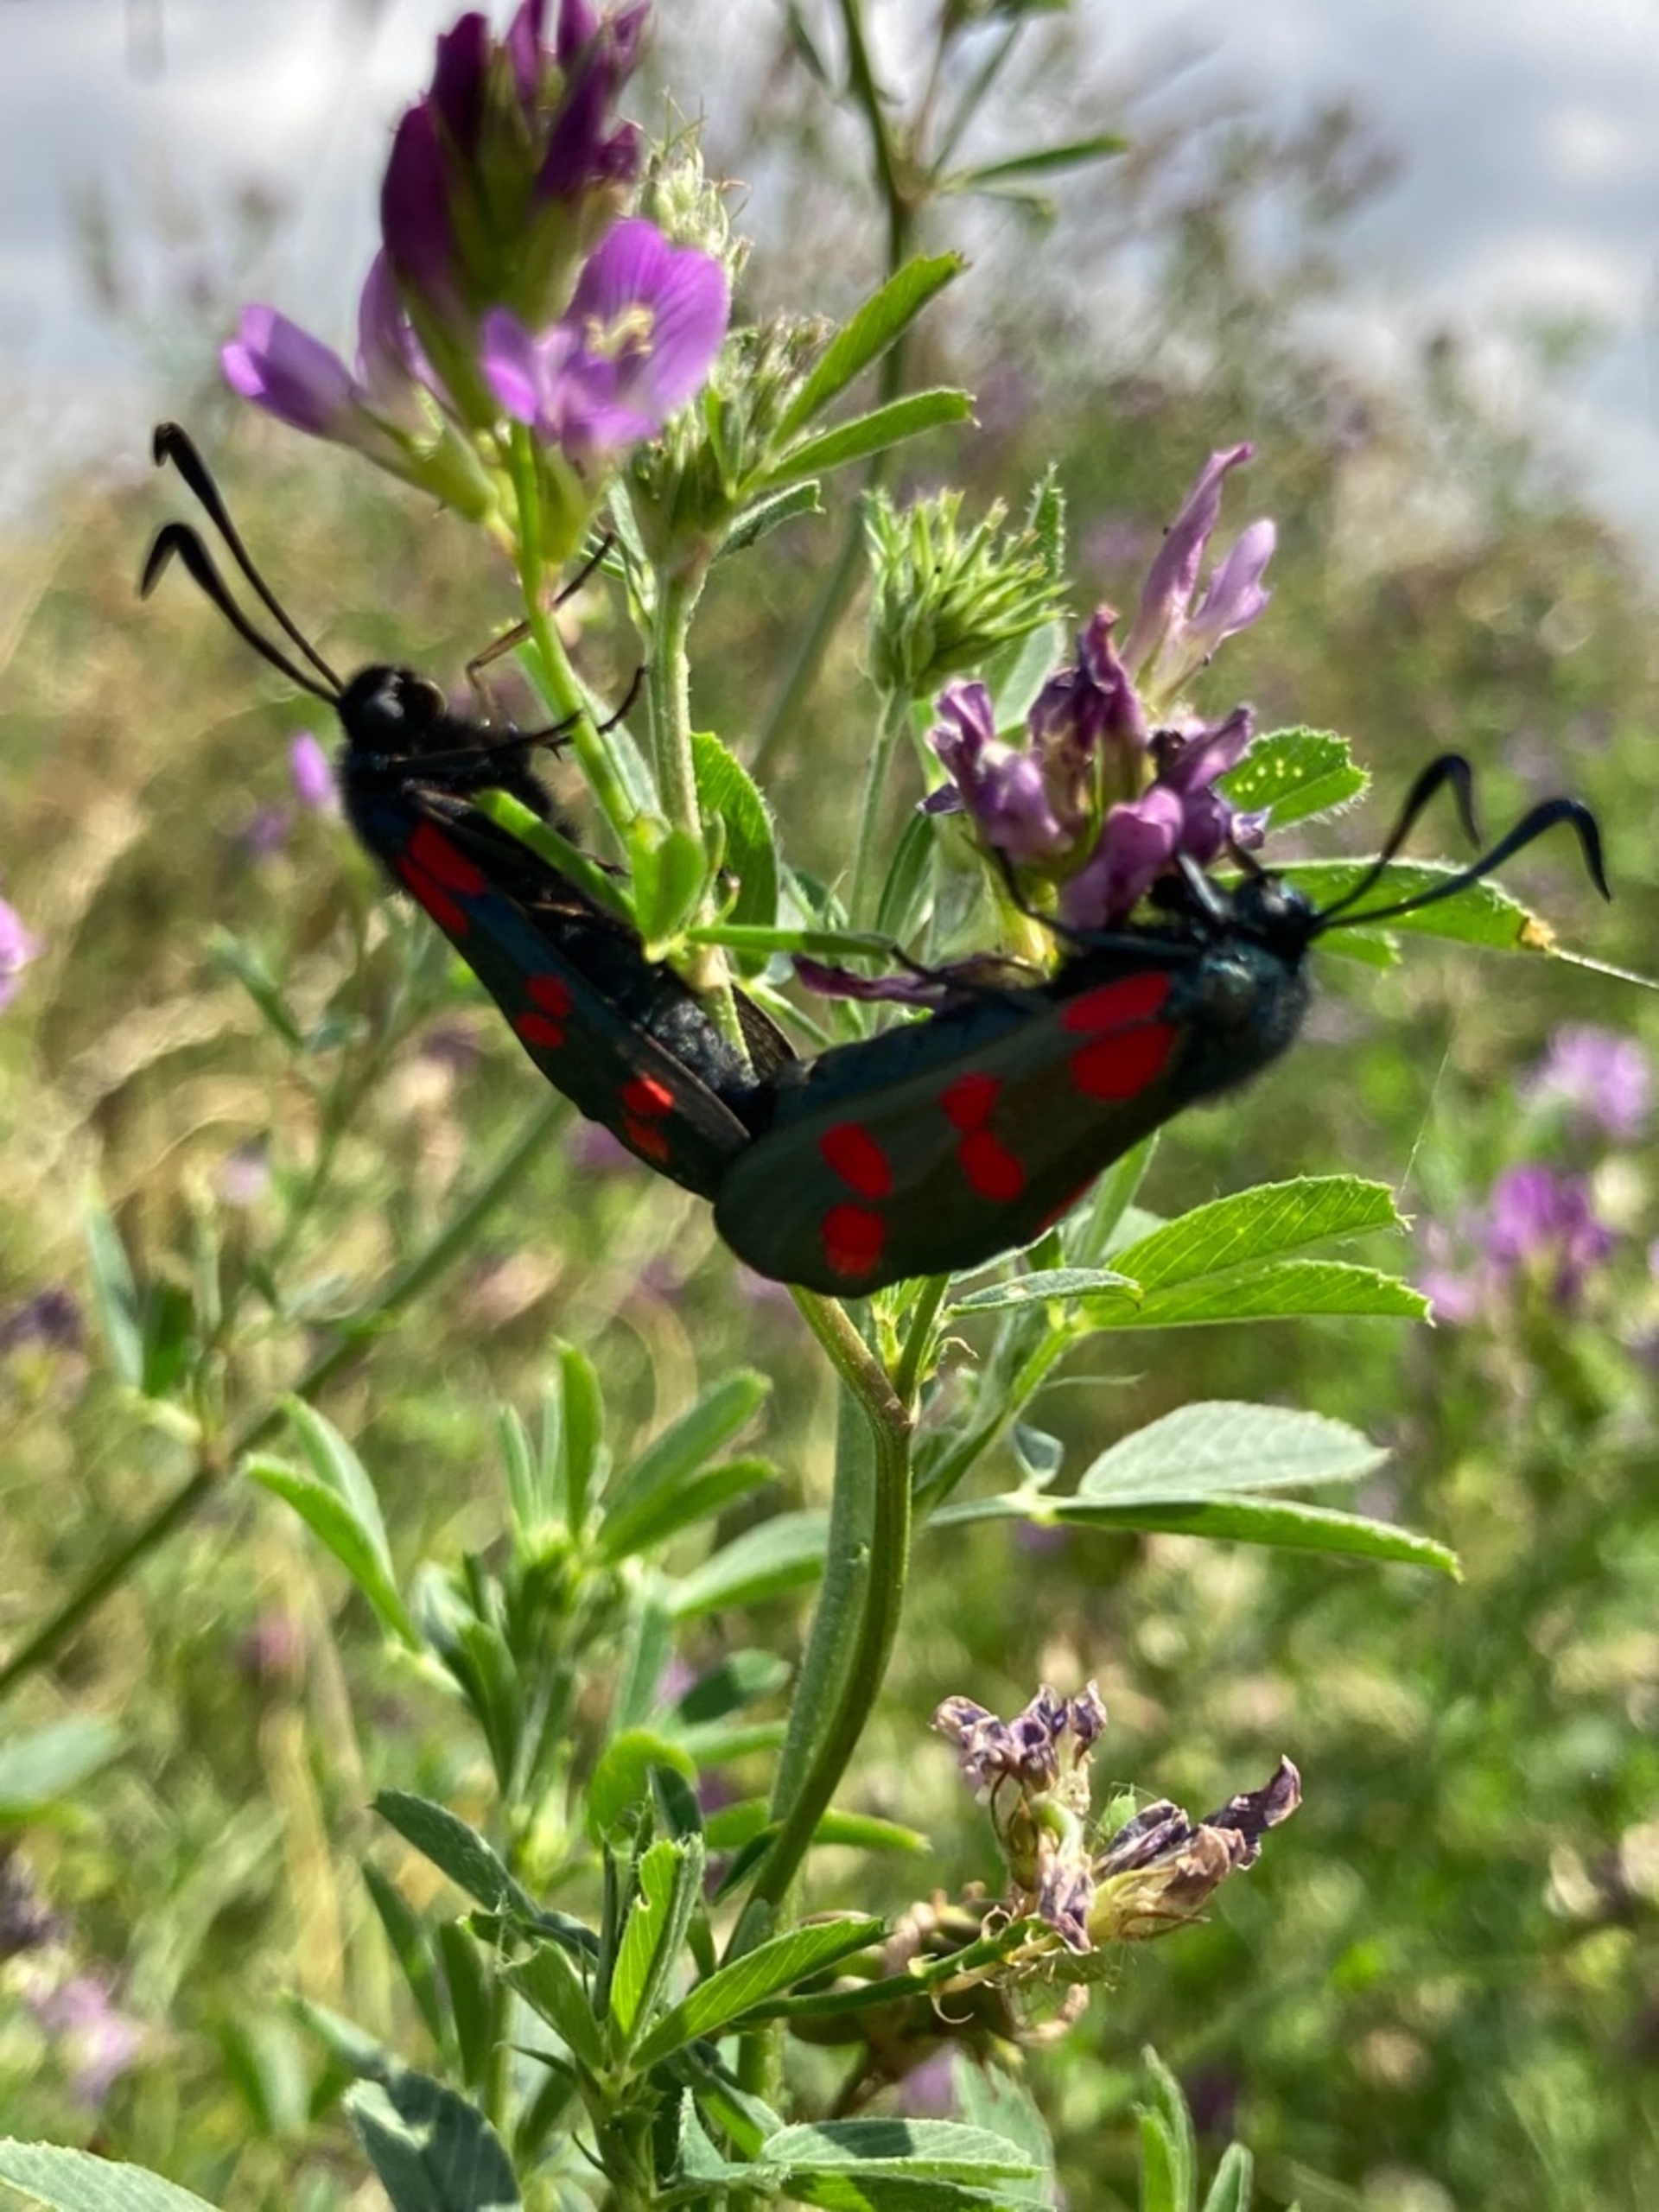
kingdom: Animalia
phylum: Arthropoda
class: Insecta
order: Lepidoptera
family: Zygaenidae
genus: Zygaena
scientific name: Zygaena filipendulae
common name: Seksplettet køllesværmer
